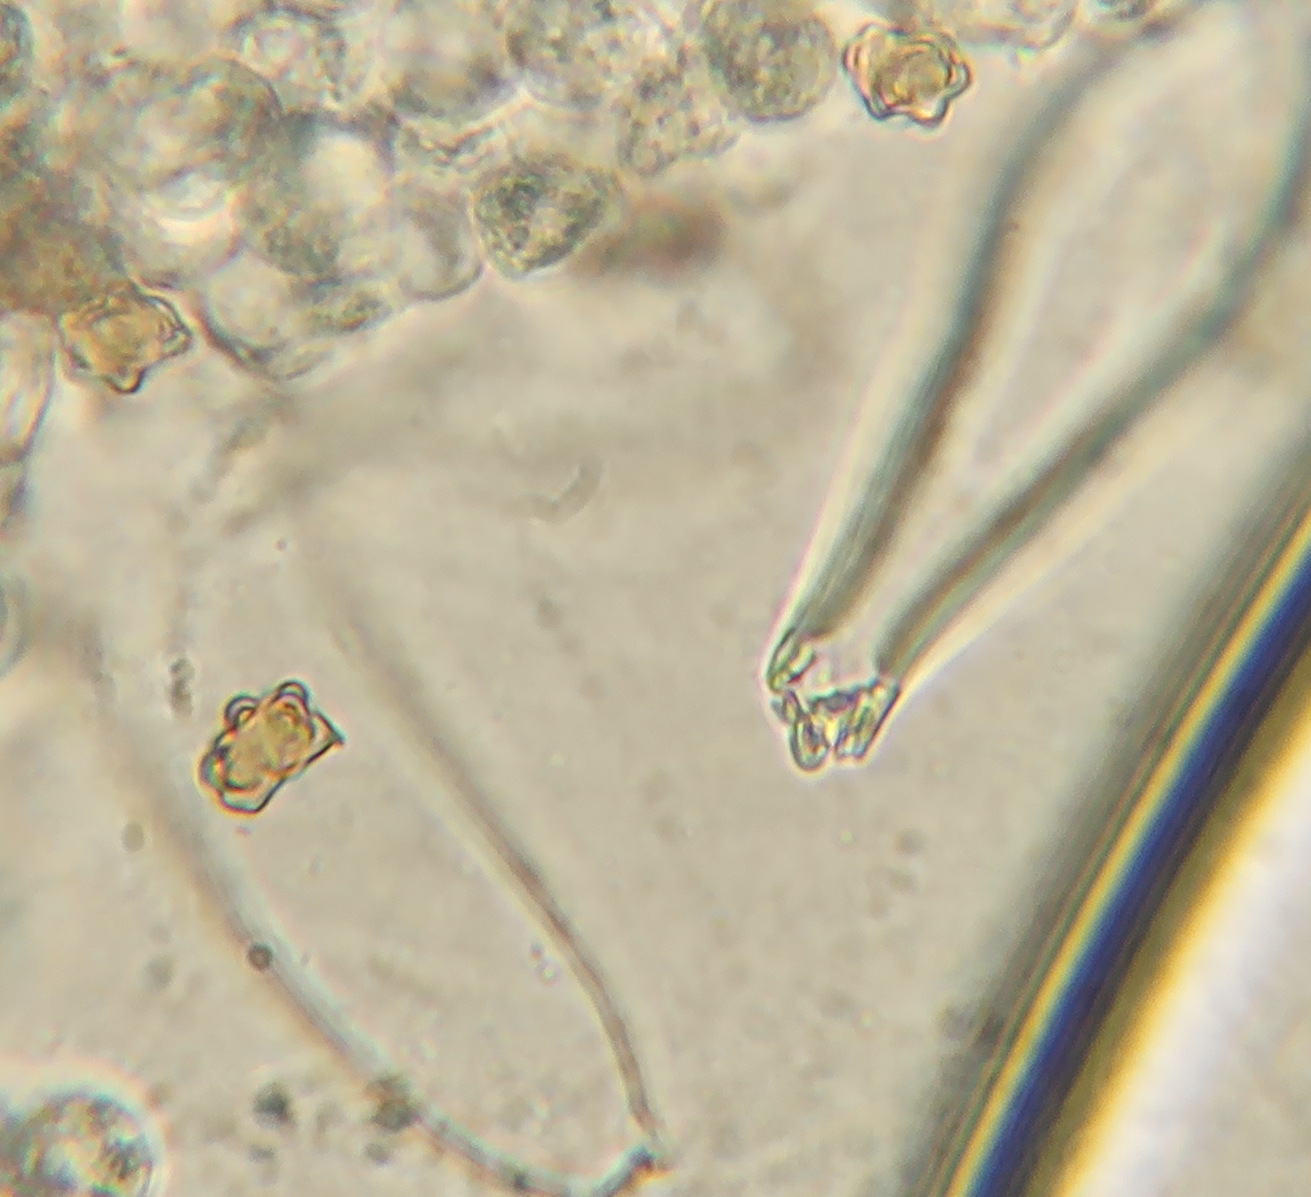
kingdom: Fungi
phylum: Basidiomycota
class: Agaricomycetes
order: Agaricales
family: Inocybaceae
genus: Inocybe
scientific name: Inocybe mixtilis
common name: randknoldet trævlhat
